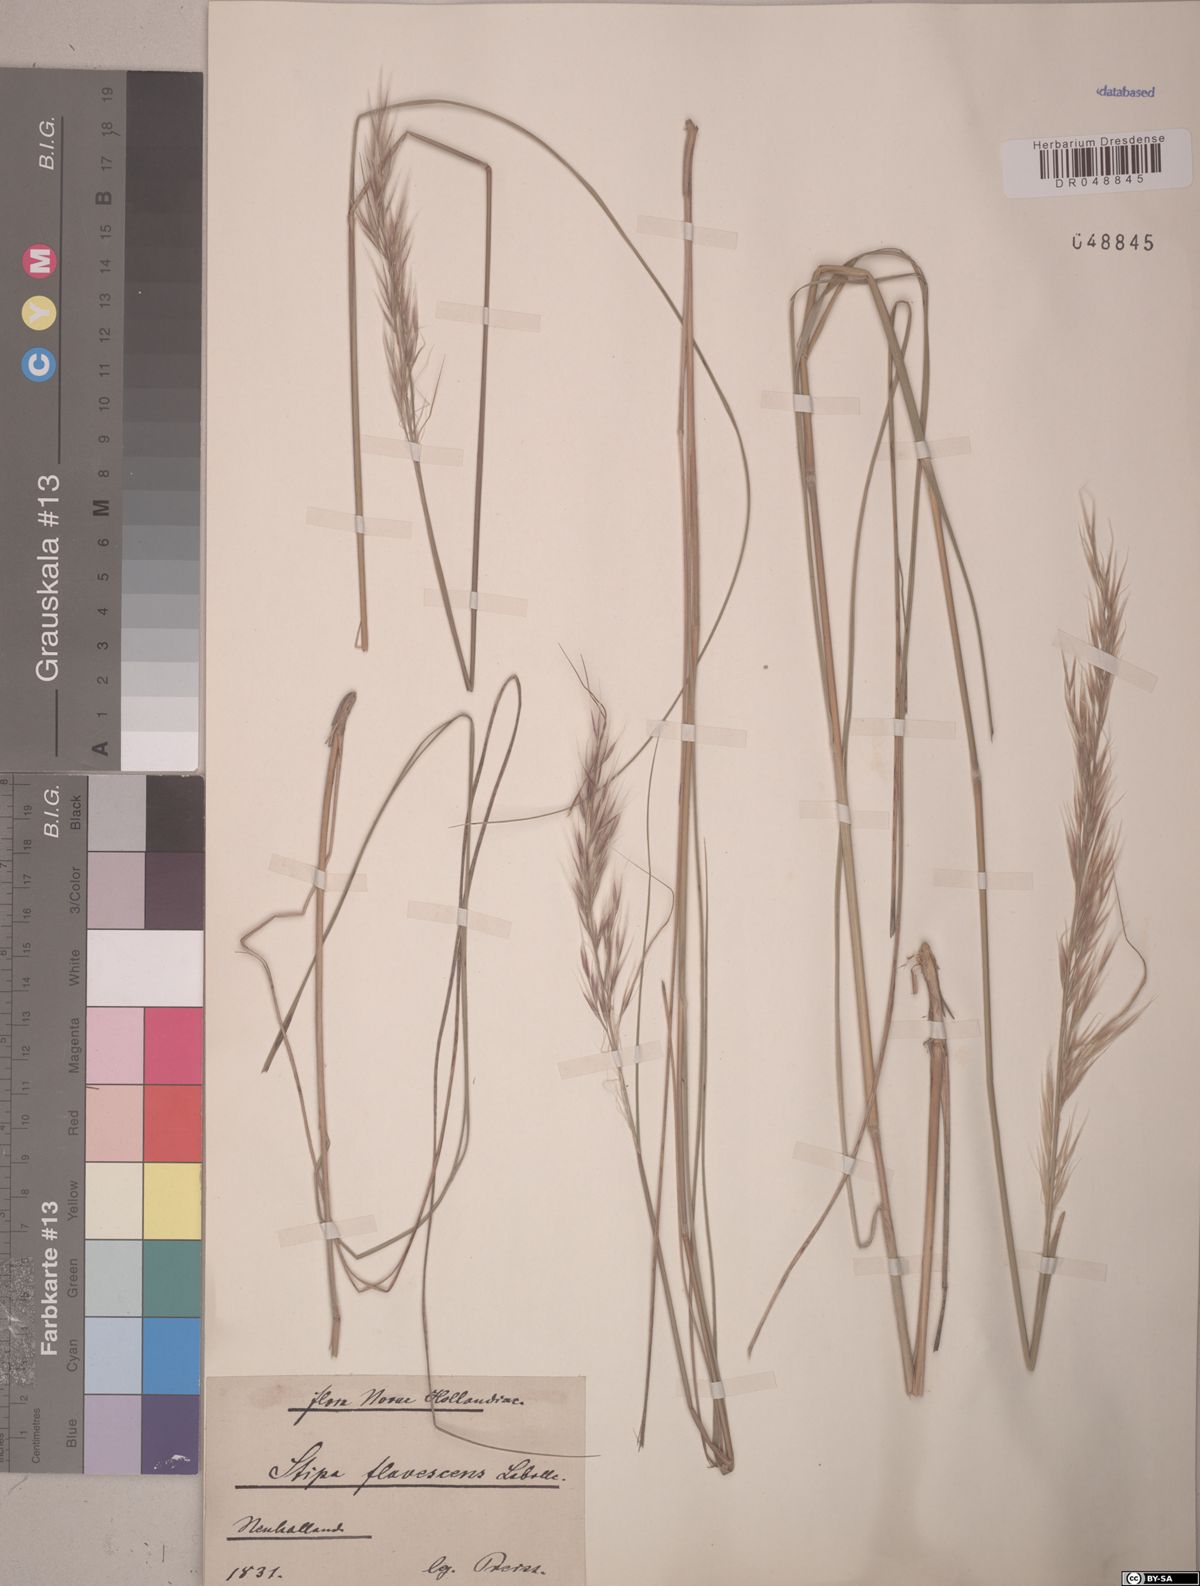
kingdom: Plantae
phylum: Tracheophyta
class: Liliopsida
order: Poales
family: Poaceae
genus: Austrostipa
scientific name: Austrostipa flavescens
